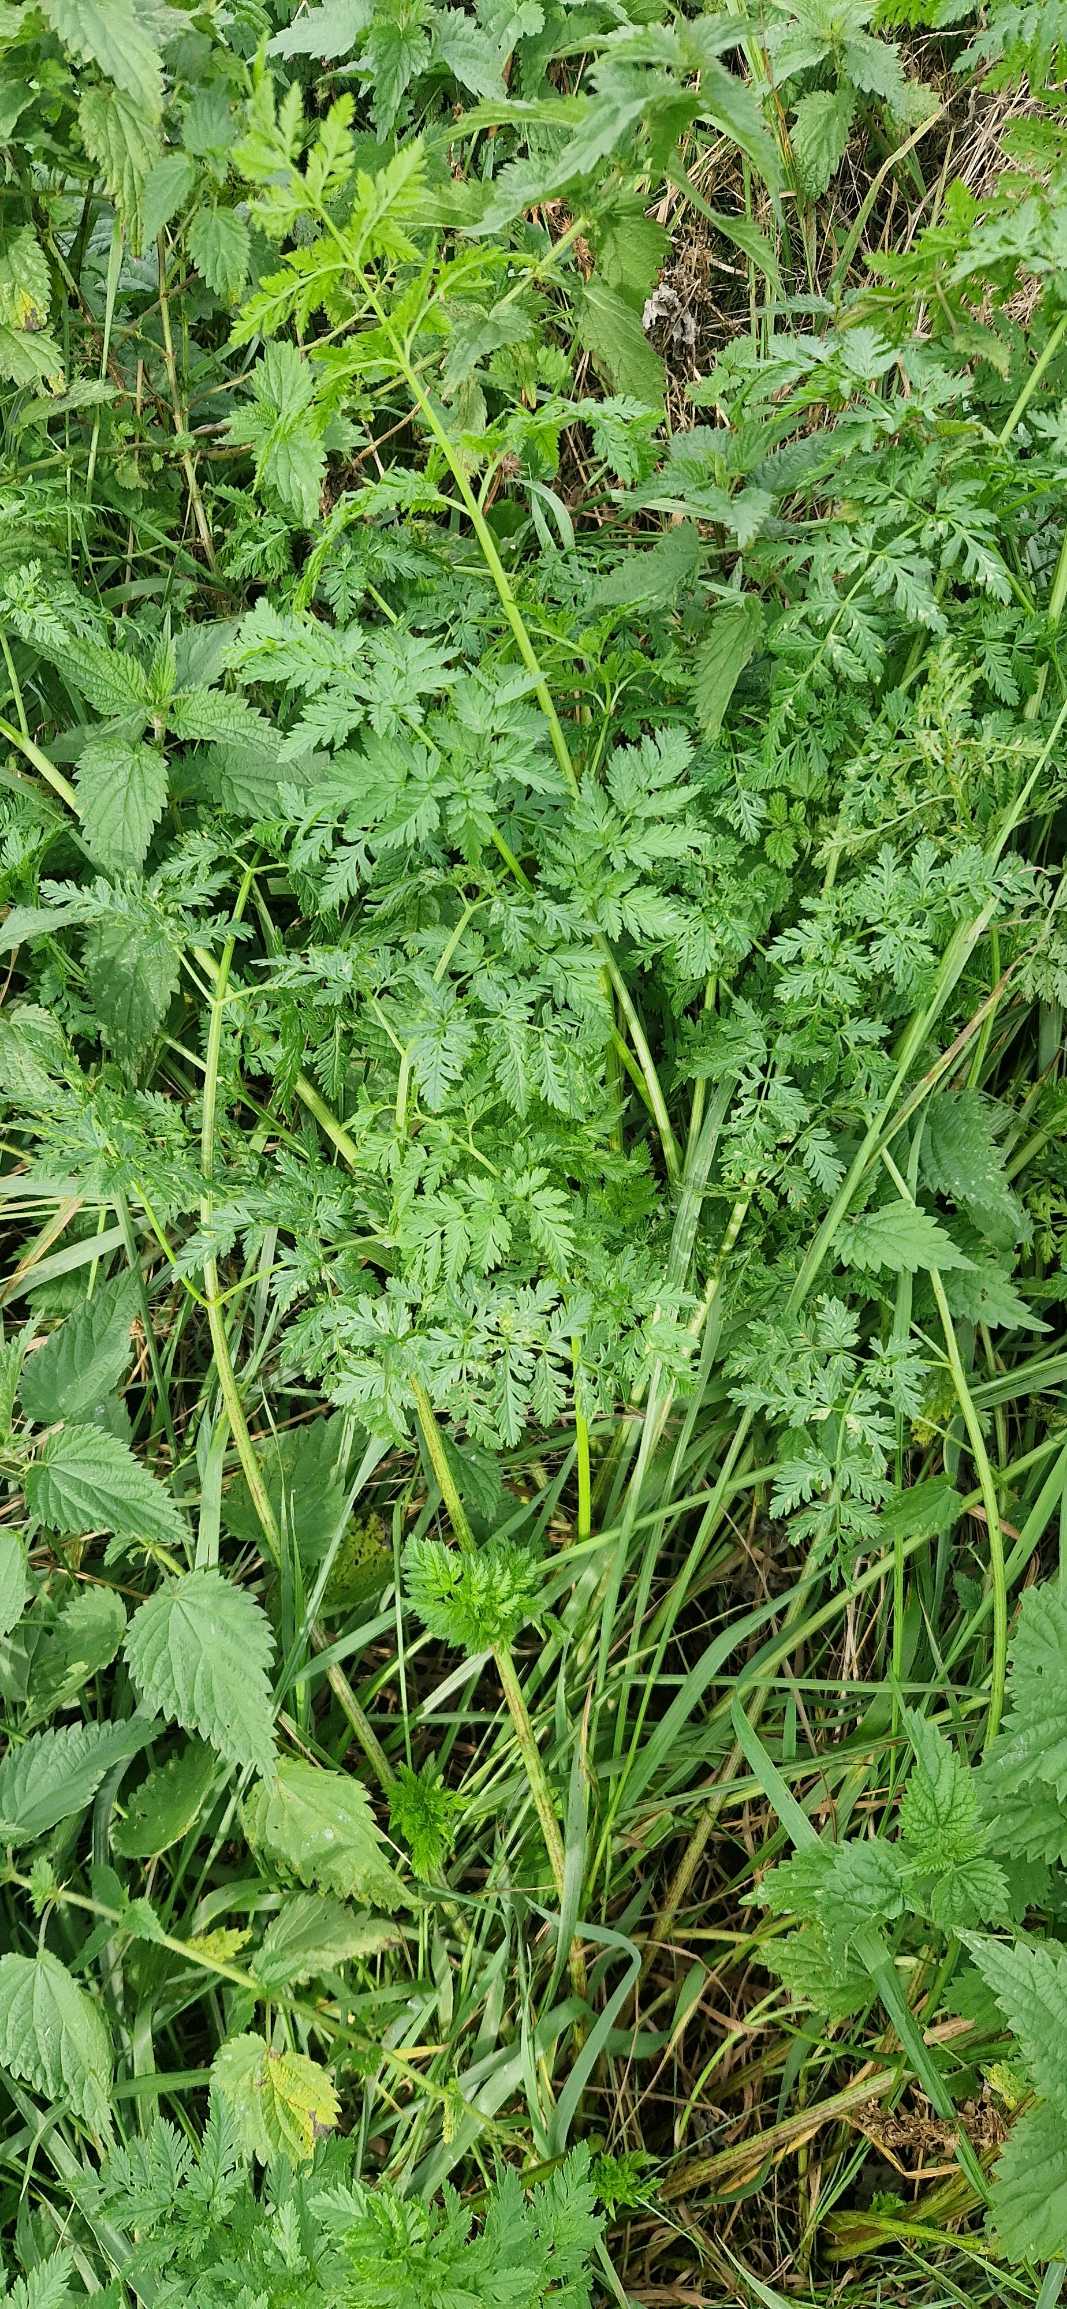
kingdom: Plantae
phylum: Tracheophyta
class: Magnoliopsida
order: Apiales
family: Apiaceae
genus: Conium
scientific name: Conium maculatum
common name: Skarntyde
